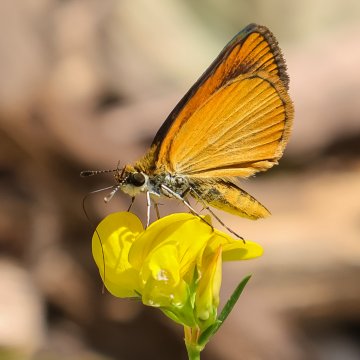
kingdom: Animalia
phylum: Arthropoda
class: Insecta
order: Lepidoptera
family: Hesperiidae
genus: Ancyloxypha
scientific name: Ancyloxypha numitor
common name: Least Skipper
